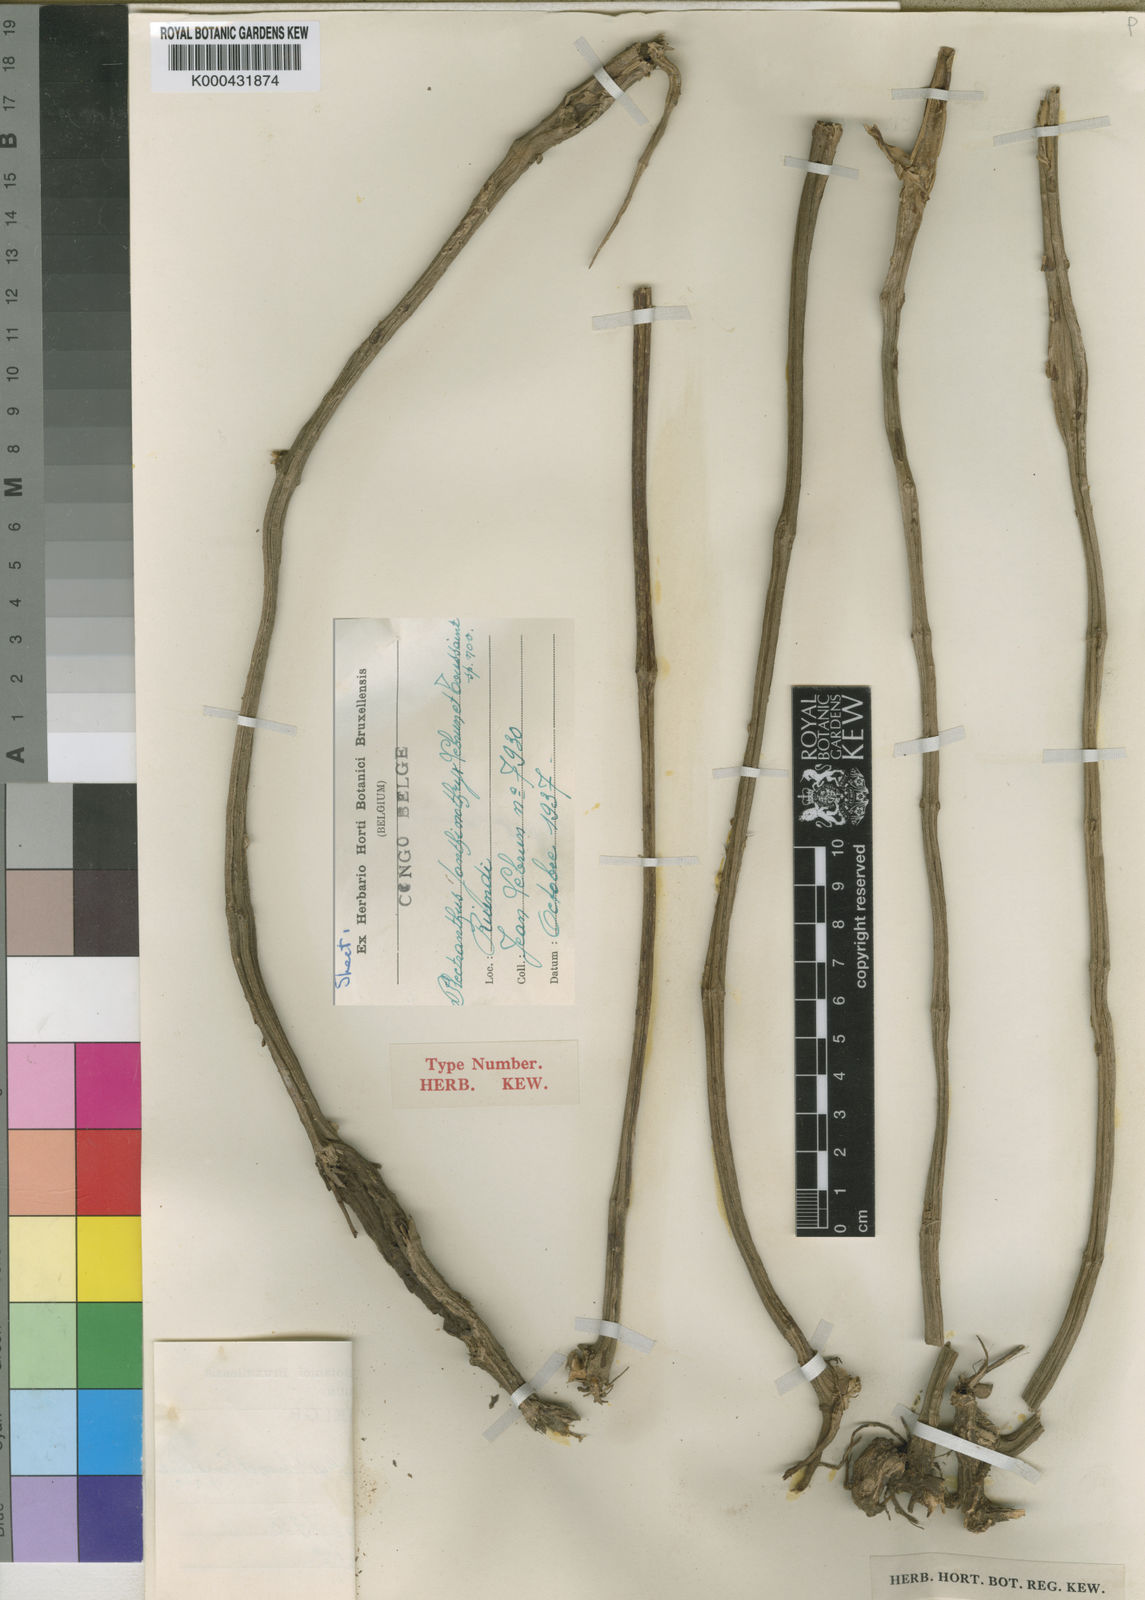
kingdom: Plantae
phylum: Tracheophyta
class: Magnoliopsida
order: Lamiales
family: Lamiaceae
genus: Equilabium
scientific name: Equilabium janthinothryx
